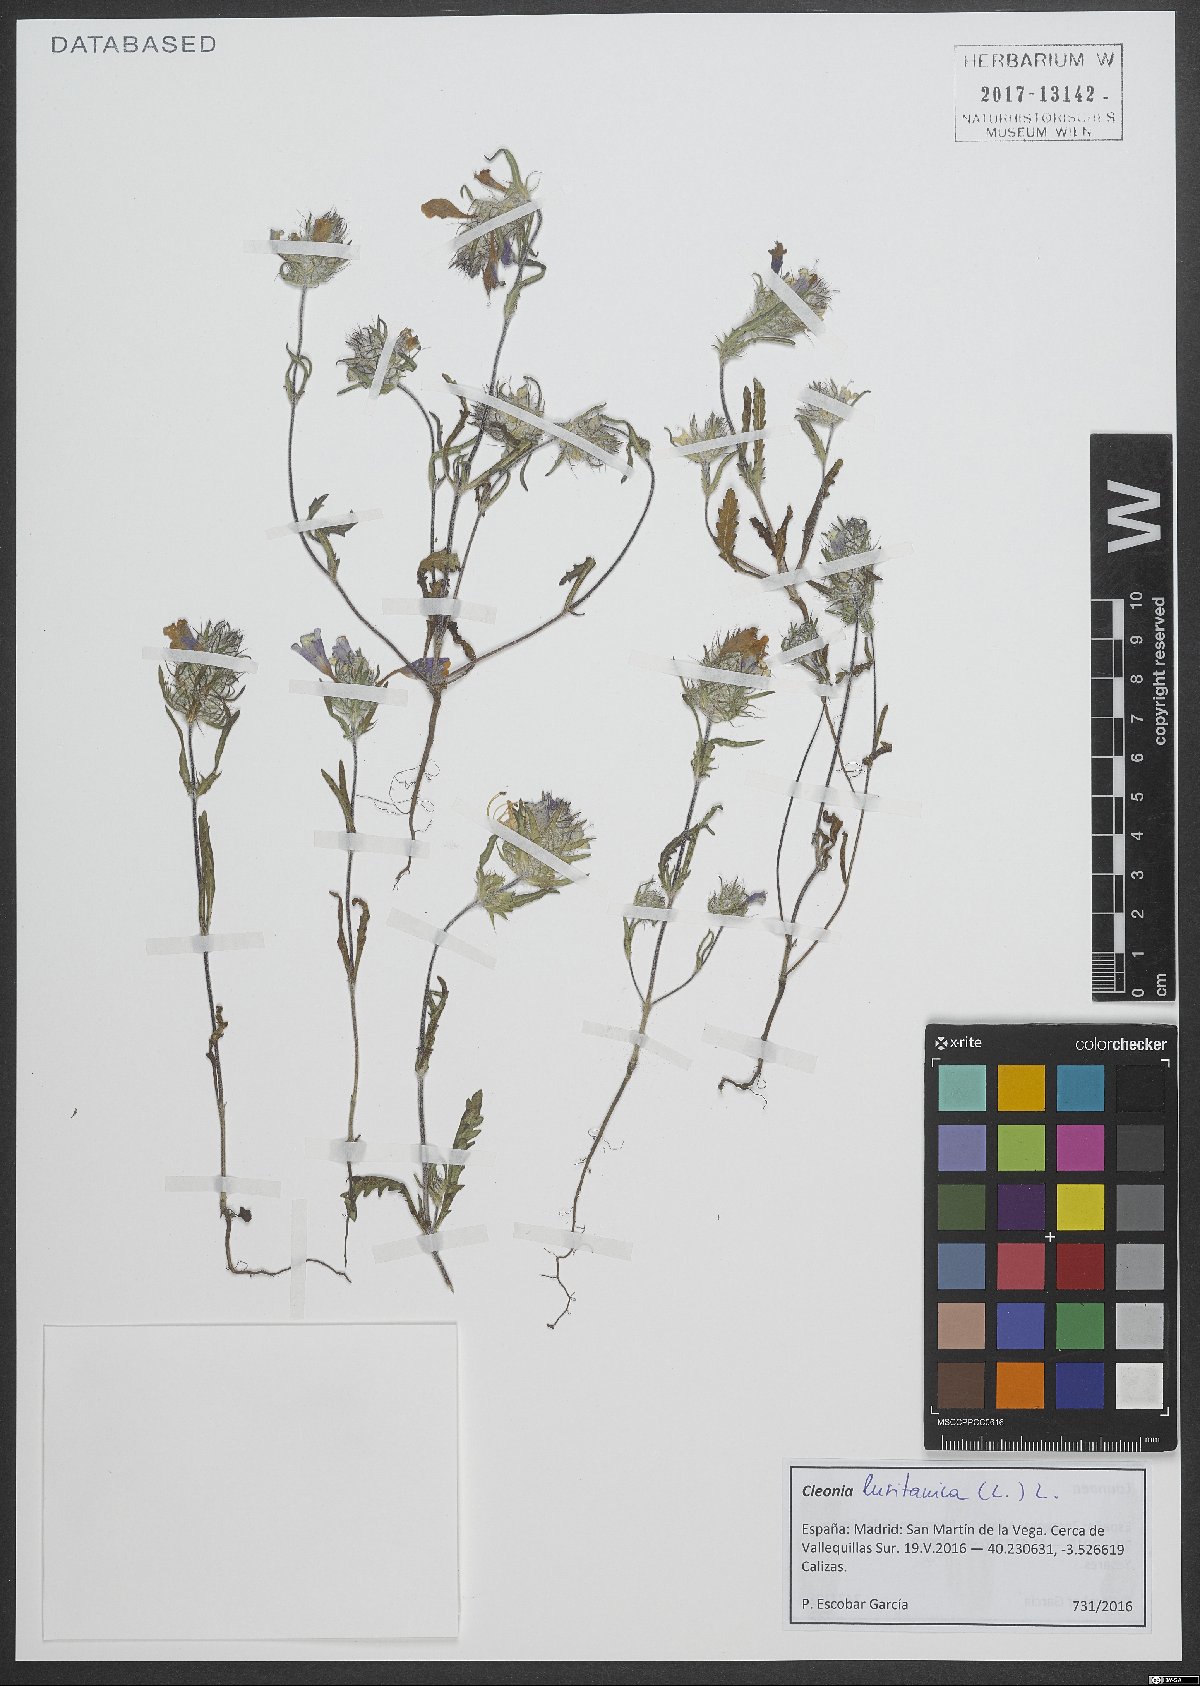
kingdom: Plantae
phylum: Tracheophyta
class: Magnoliopsida
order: Lamiales
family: Lamiaceae
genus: Cleonia
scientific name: Cleonia lusitanica
